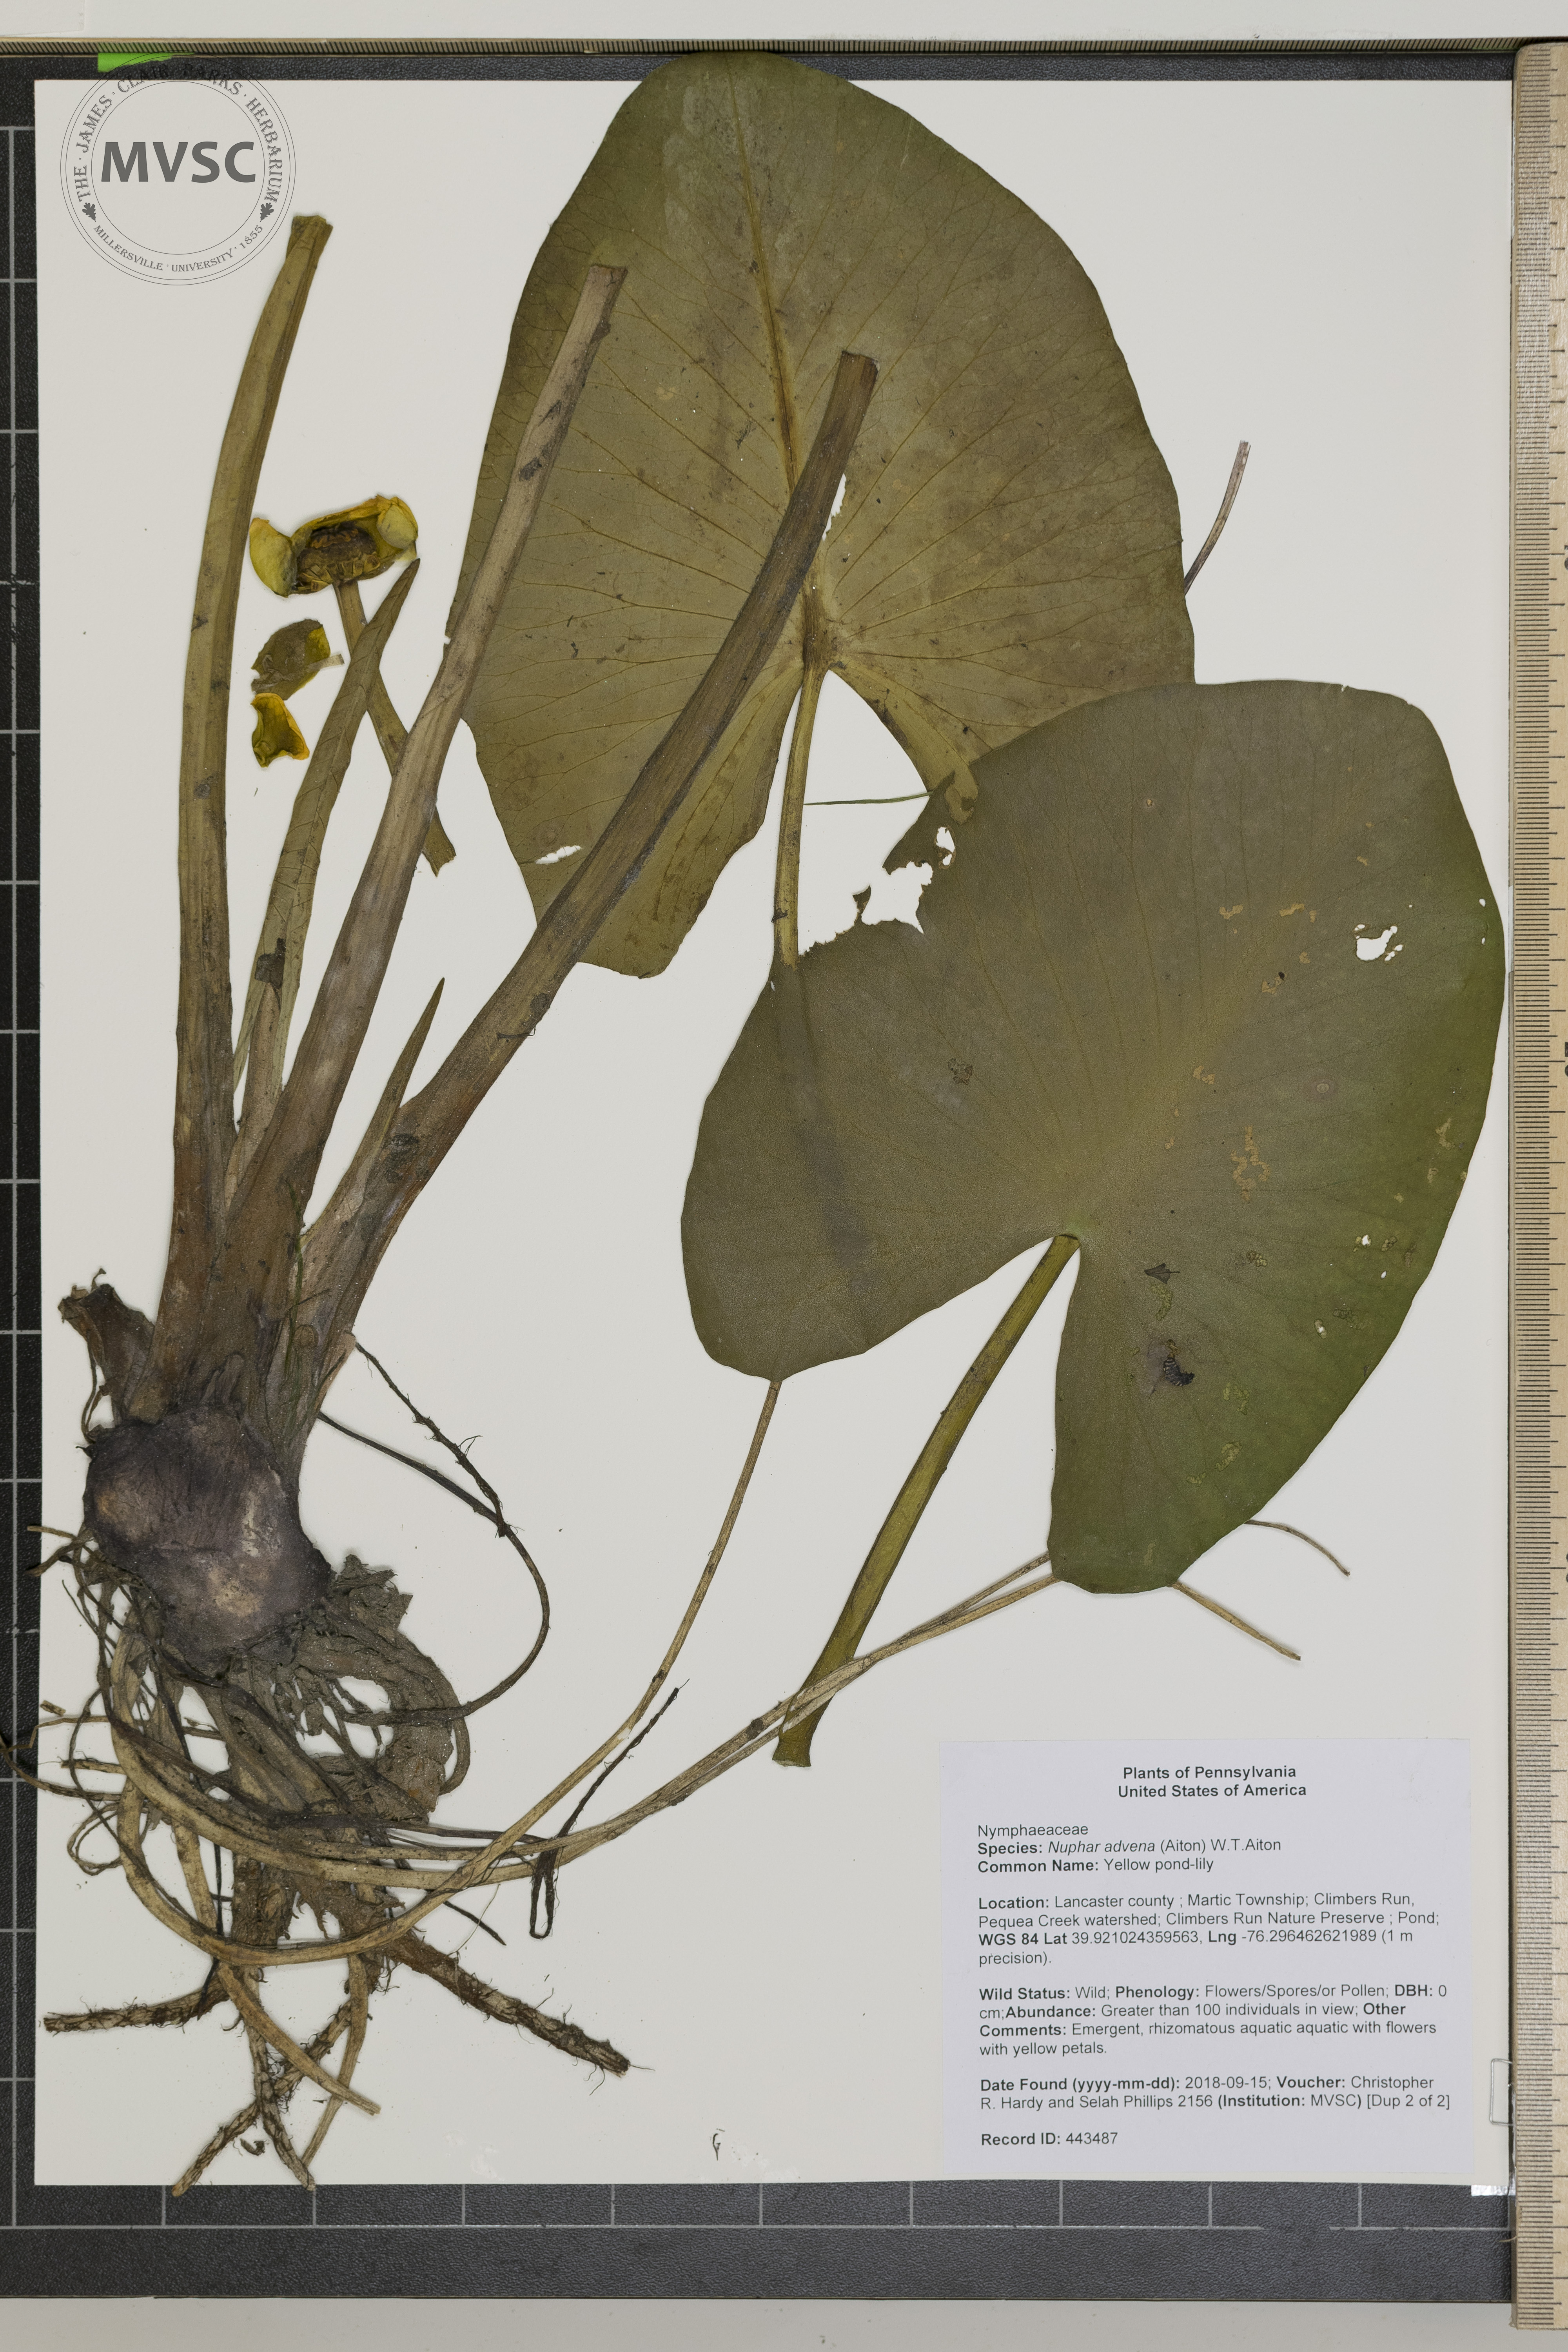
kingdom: Plantae
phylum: Tracheophyta
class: Magnoliopsida
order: Nymphaeales
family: Nymphaeaceae
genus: Nuphar
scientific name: Nuphar advena
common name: yellow pond-lily
